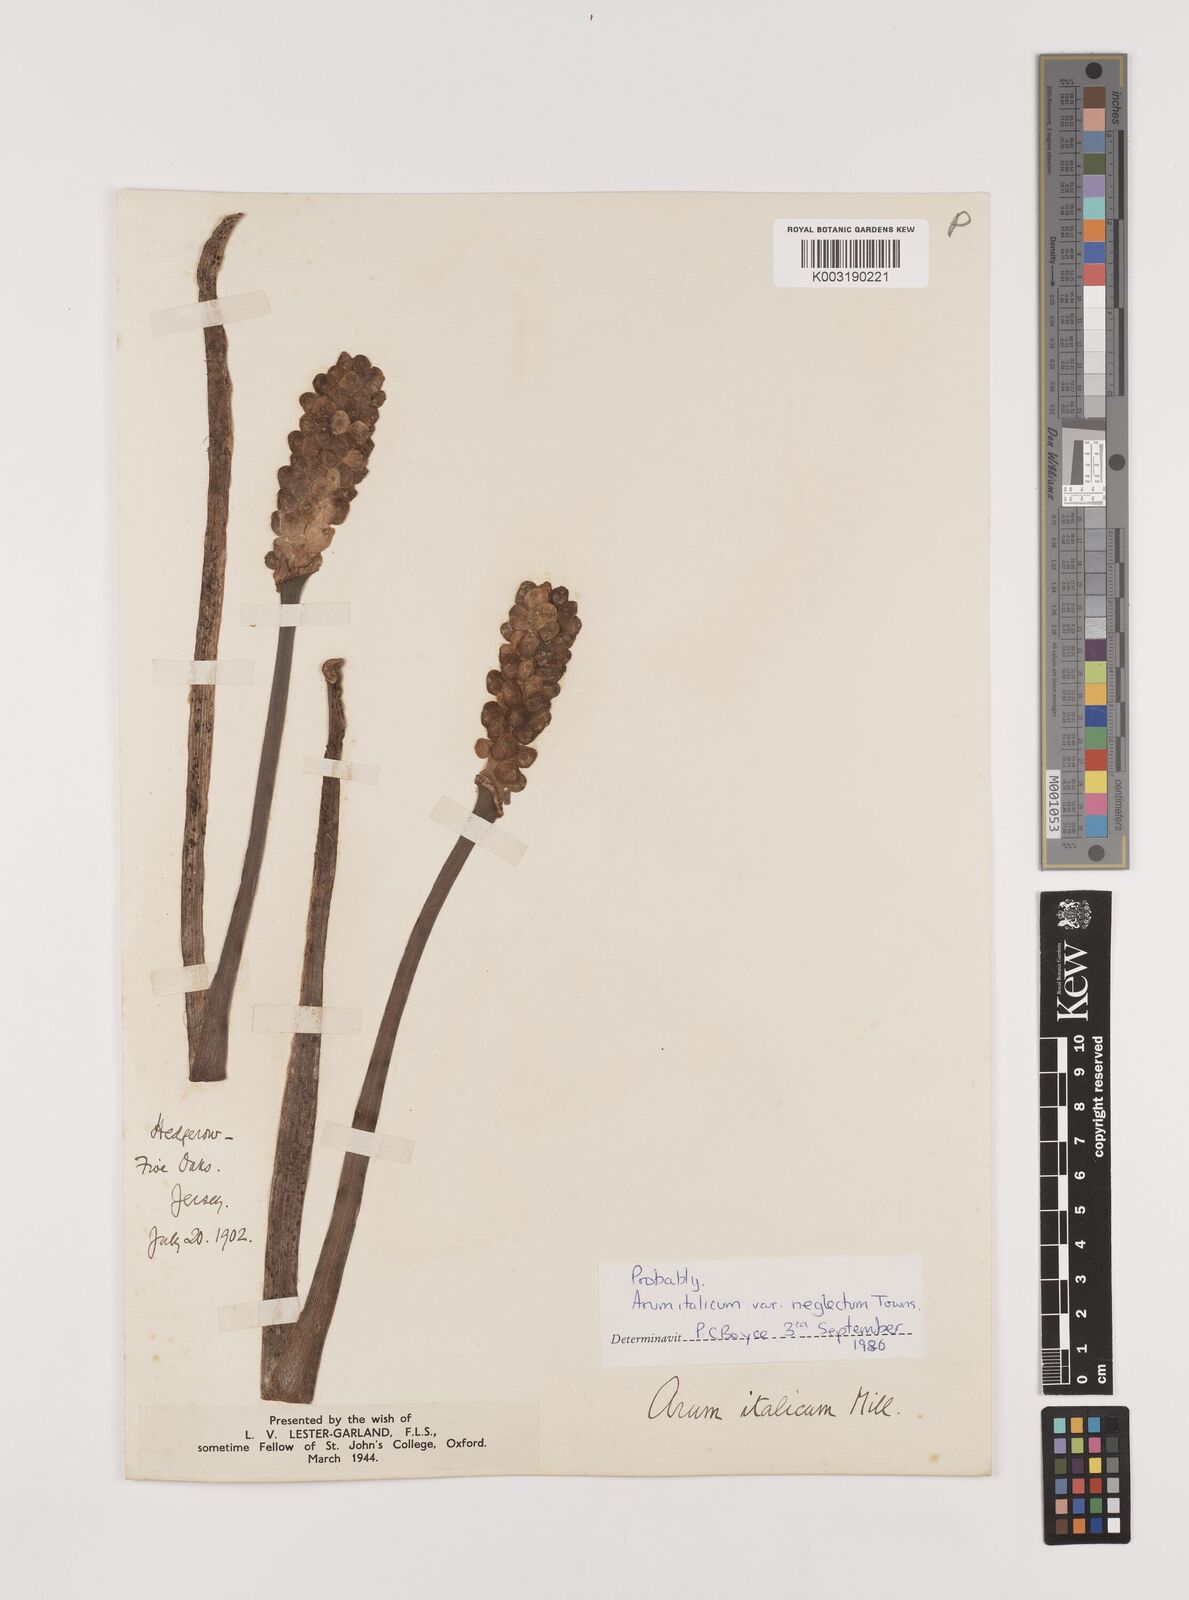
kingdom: Plantae
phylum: Tracheophyta
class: Liliopsida
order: Alismatales
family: Araceae
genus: Arum
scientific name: Arum italicum
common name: Italian lords-and-ladies
